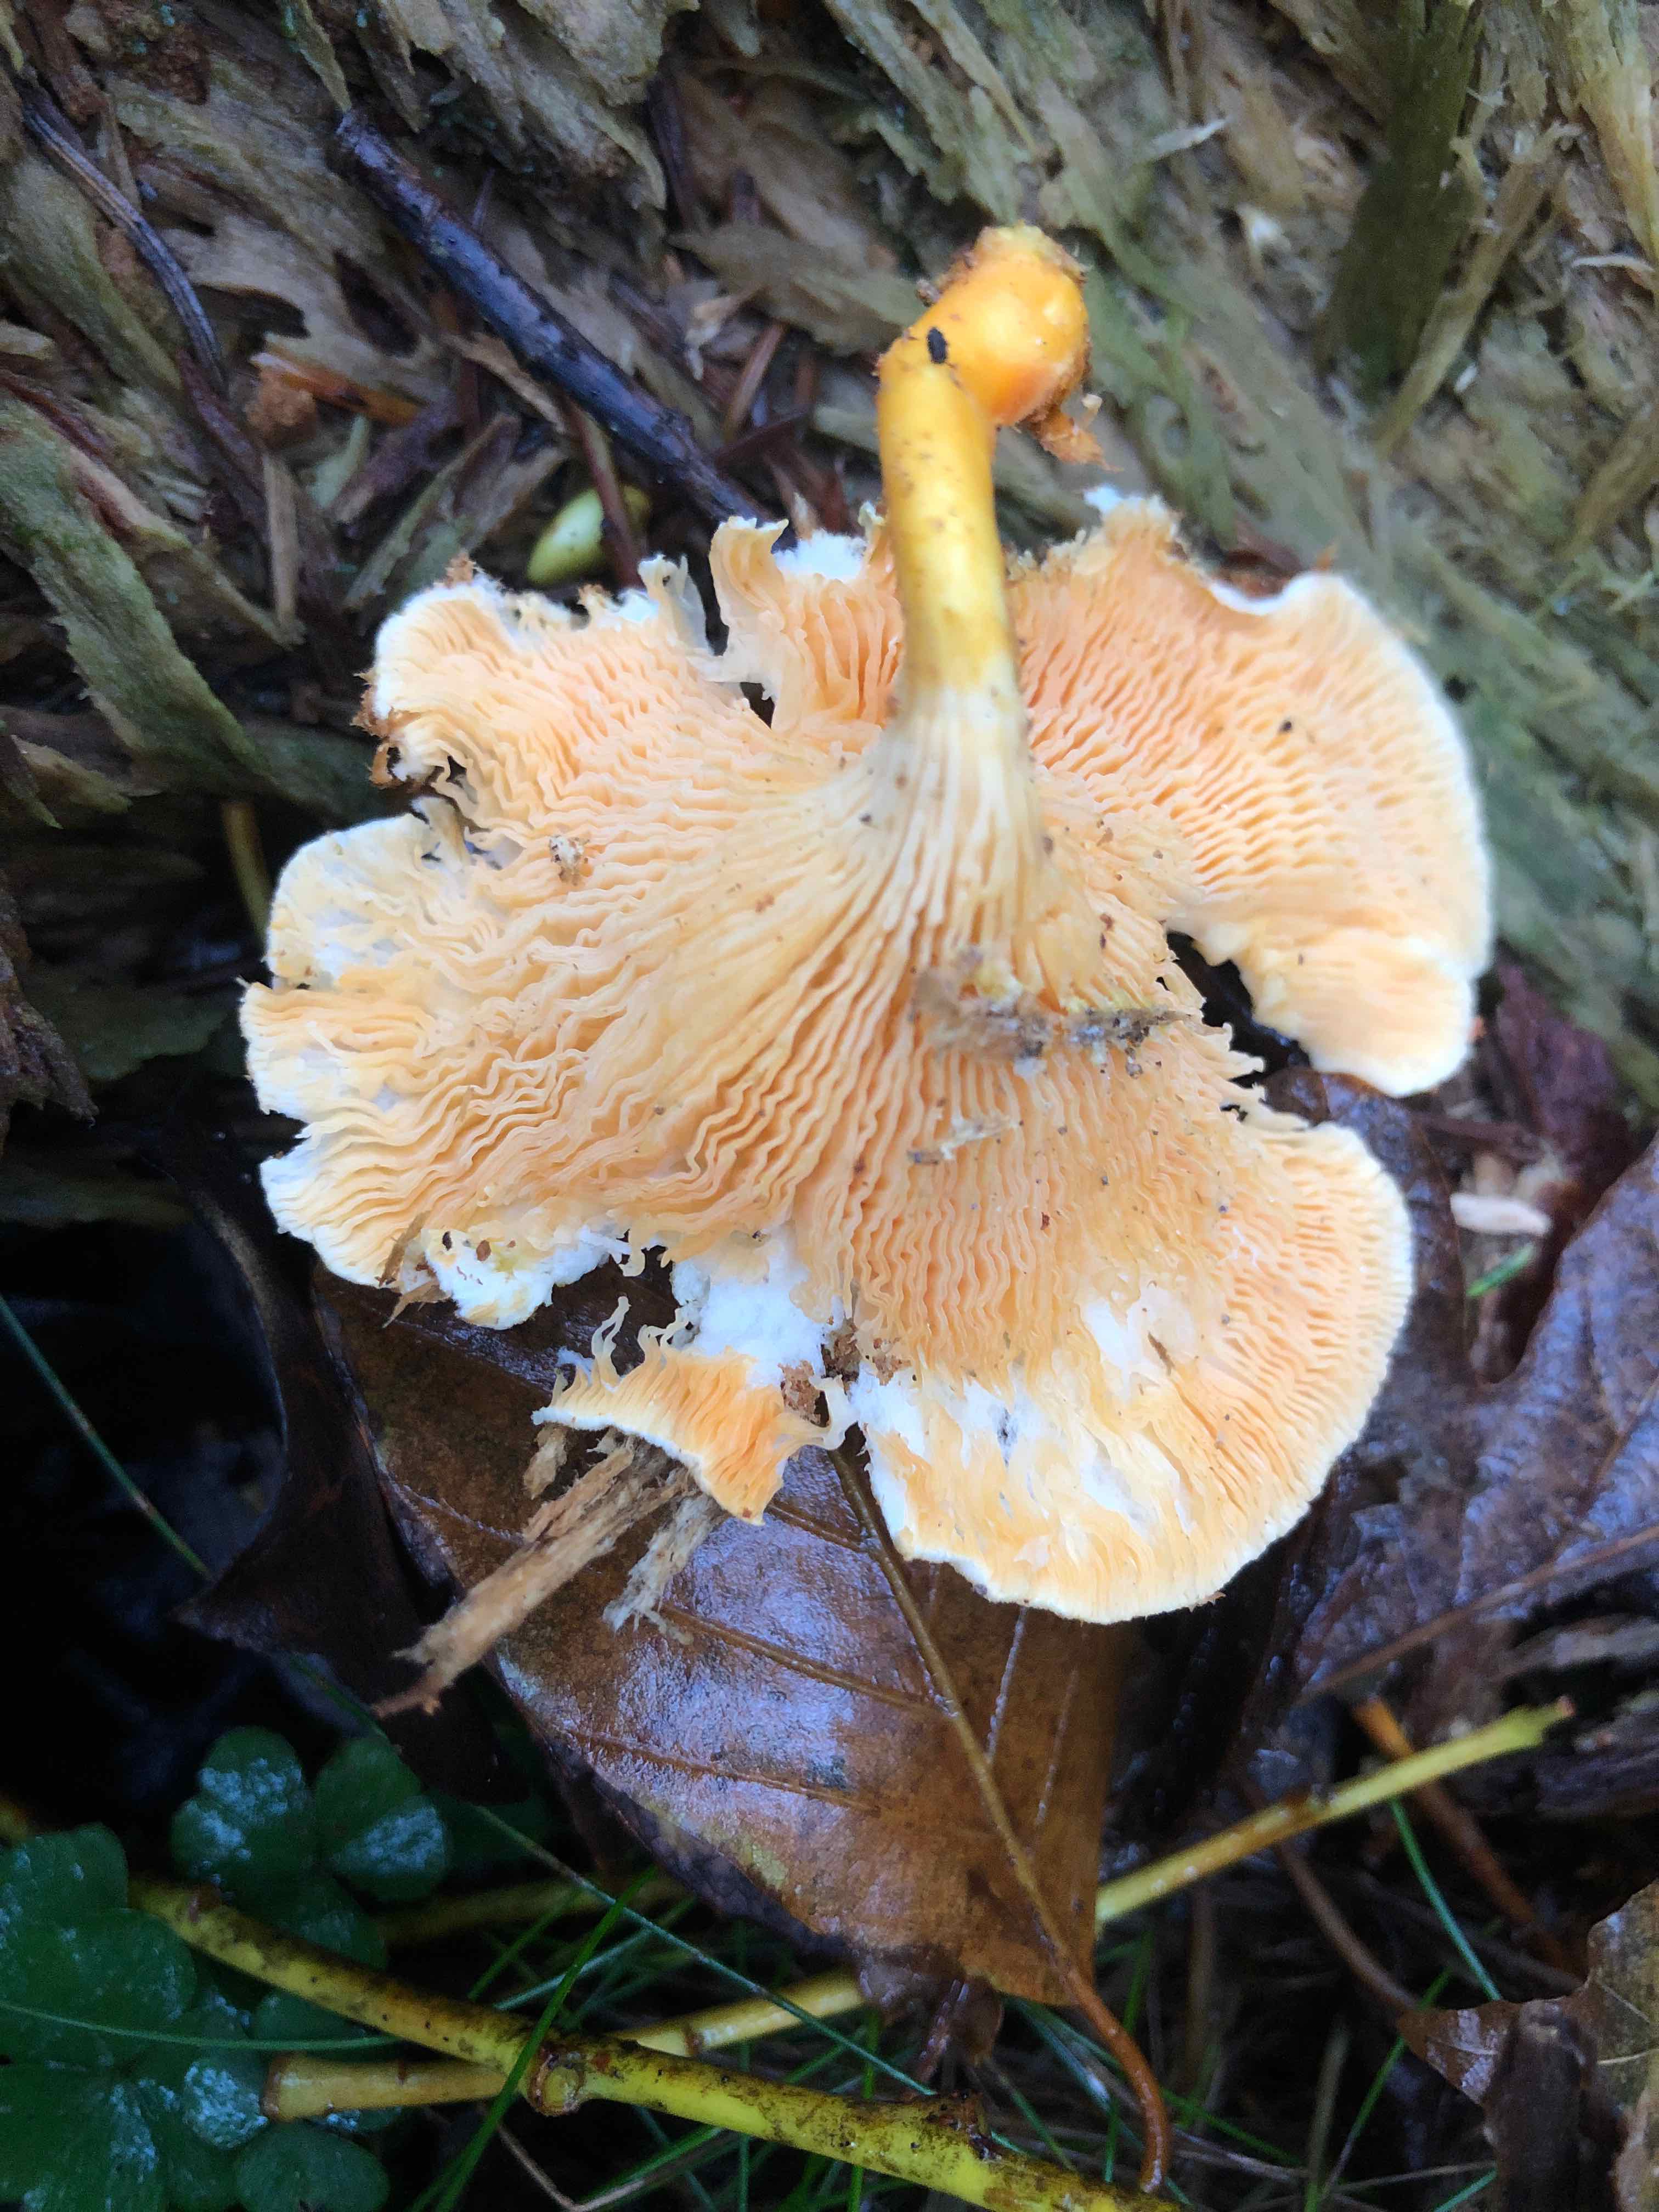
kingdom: Fungi
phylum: Basidiomycota
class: Agaricomycetes
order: Boletales
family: Hygrophoropsidaceae
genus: Hygrophoropsis
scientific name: Hygrophoropsis aurantiaca
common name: almindelig orangekantarel
